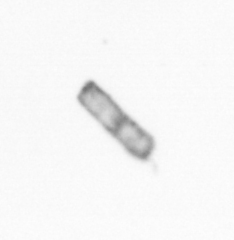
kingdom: Chromista
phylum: Ochrophyta
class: Bacillariophyceae
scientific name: Bacillariophyceae
